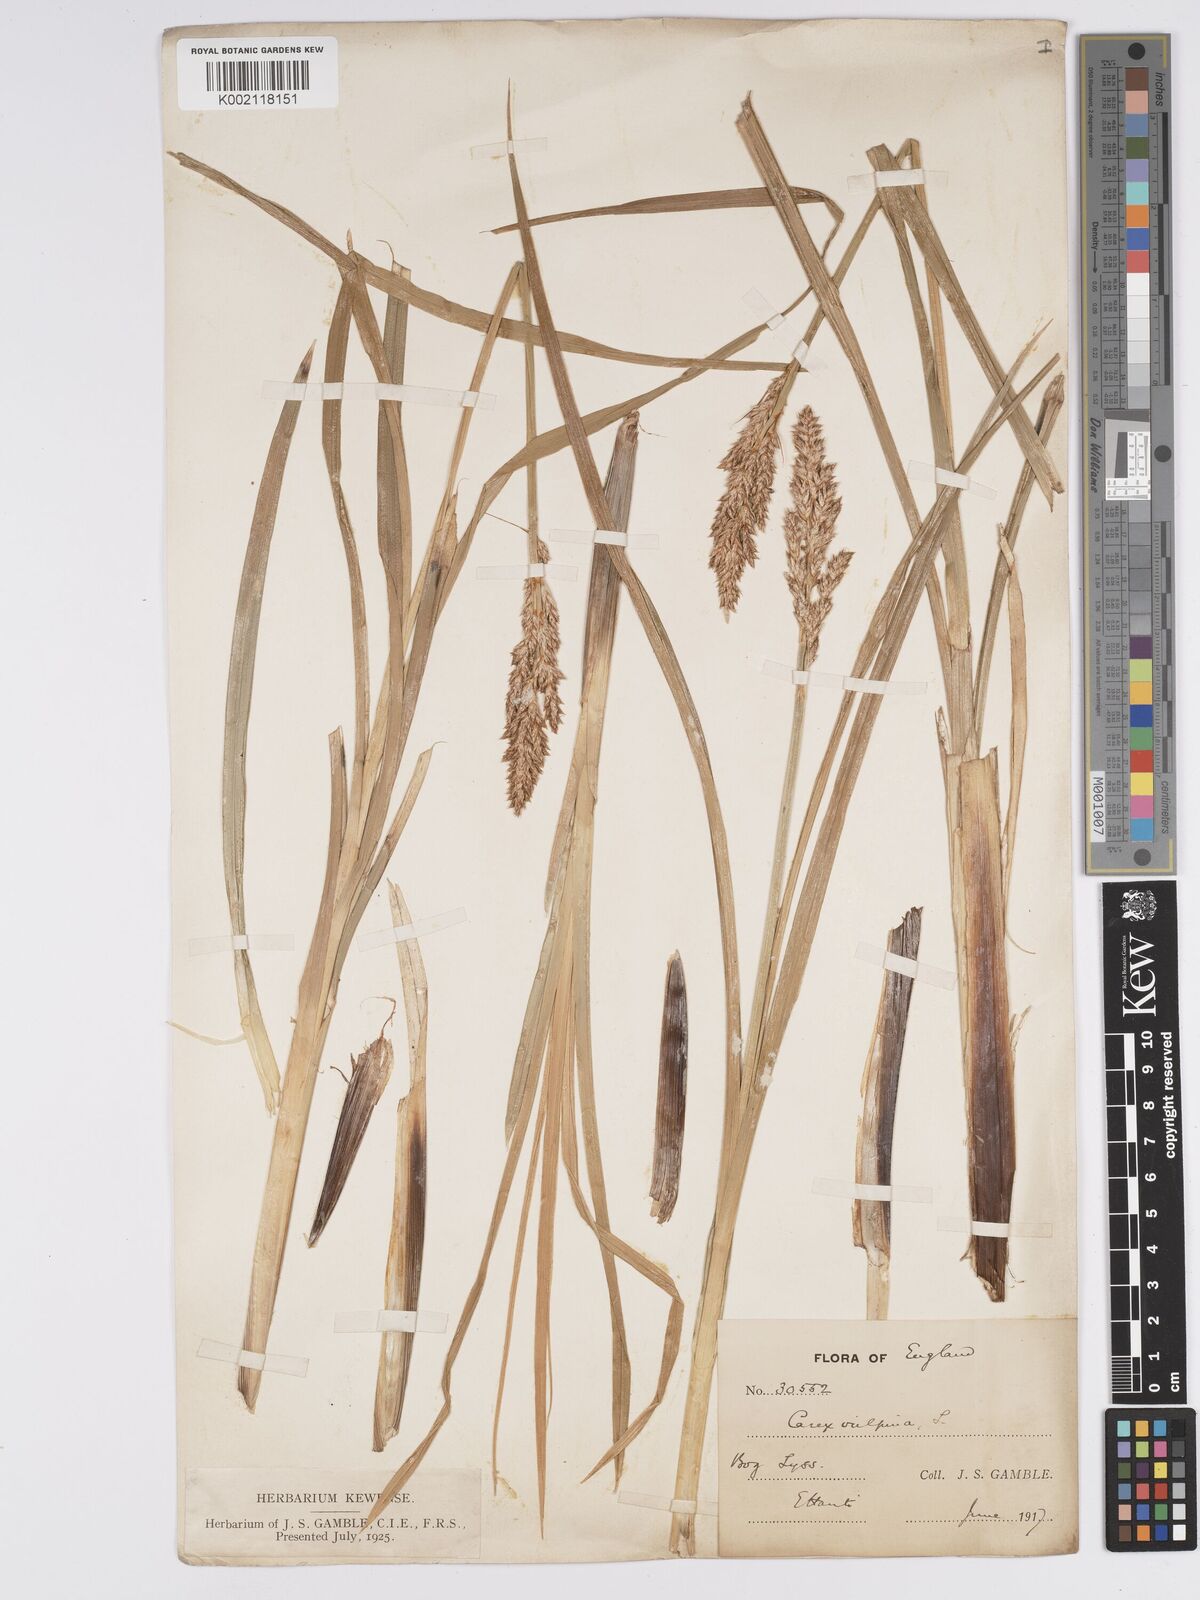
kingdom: Plantae
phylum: Tracheophyta
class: Liliopsida
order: Poales
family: Cyperaceae
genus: Carex
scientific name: Carex paniculata
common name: Greater tussock-sedge
